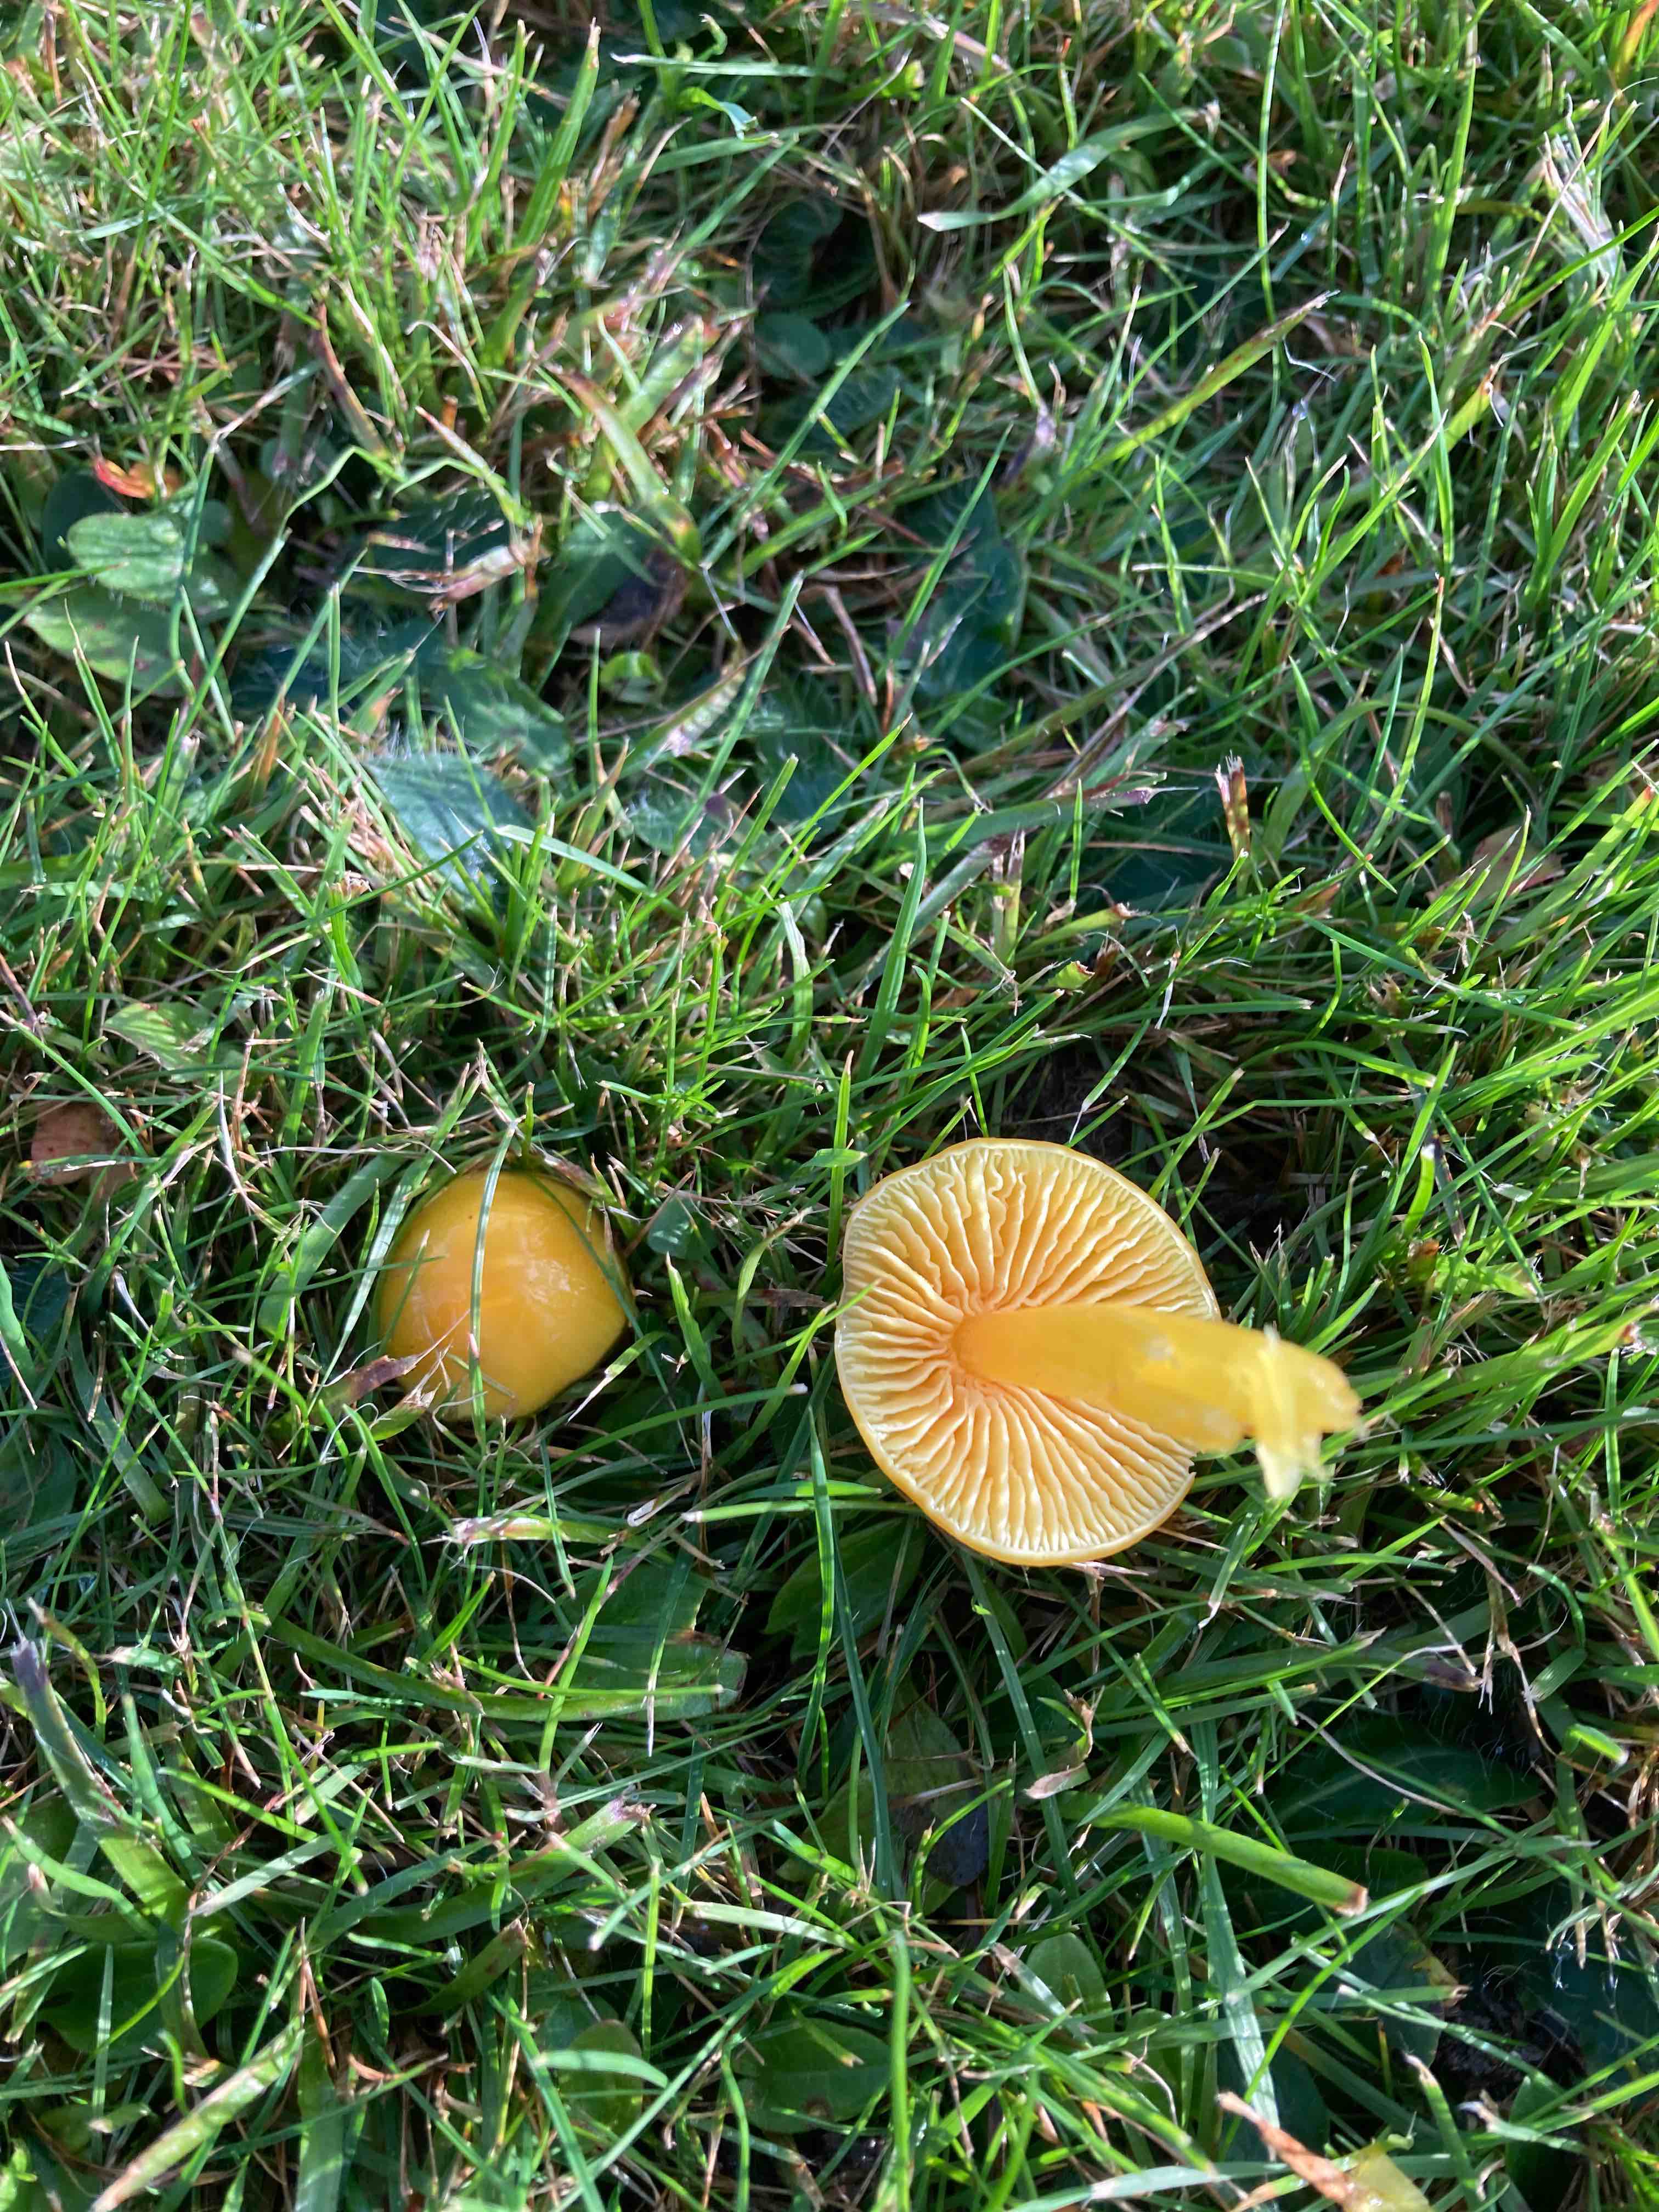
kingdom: Fungi
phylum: Basidiomycota
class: Agaricomycetes
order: Agaricales
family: Hygrophoraceae
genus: Hygrocybe
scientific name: Hygrocybe chlorophana
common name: gul vokshat
